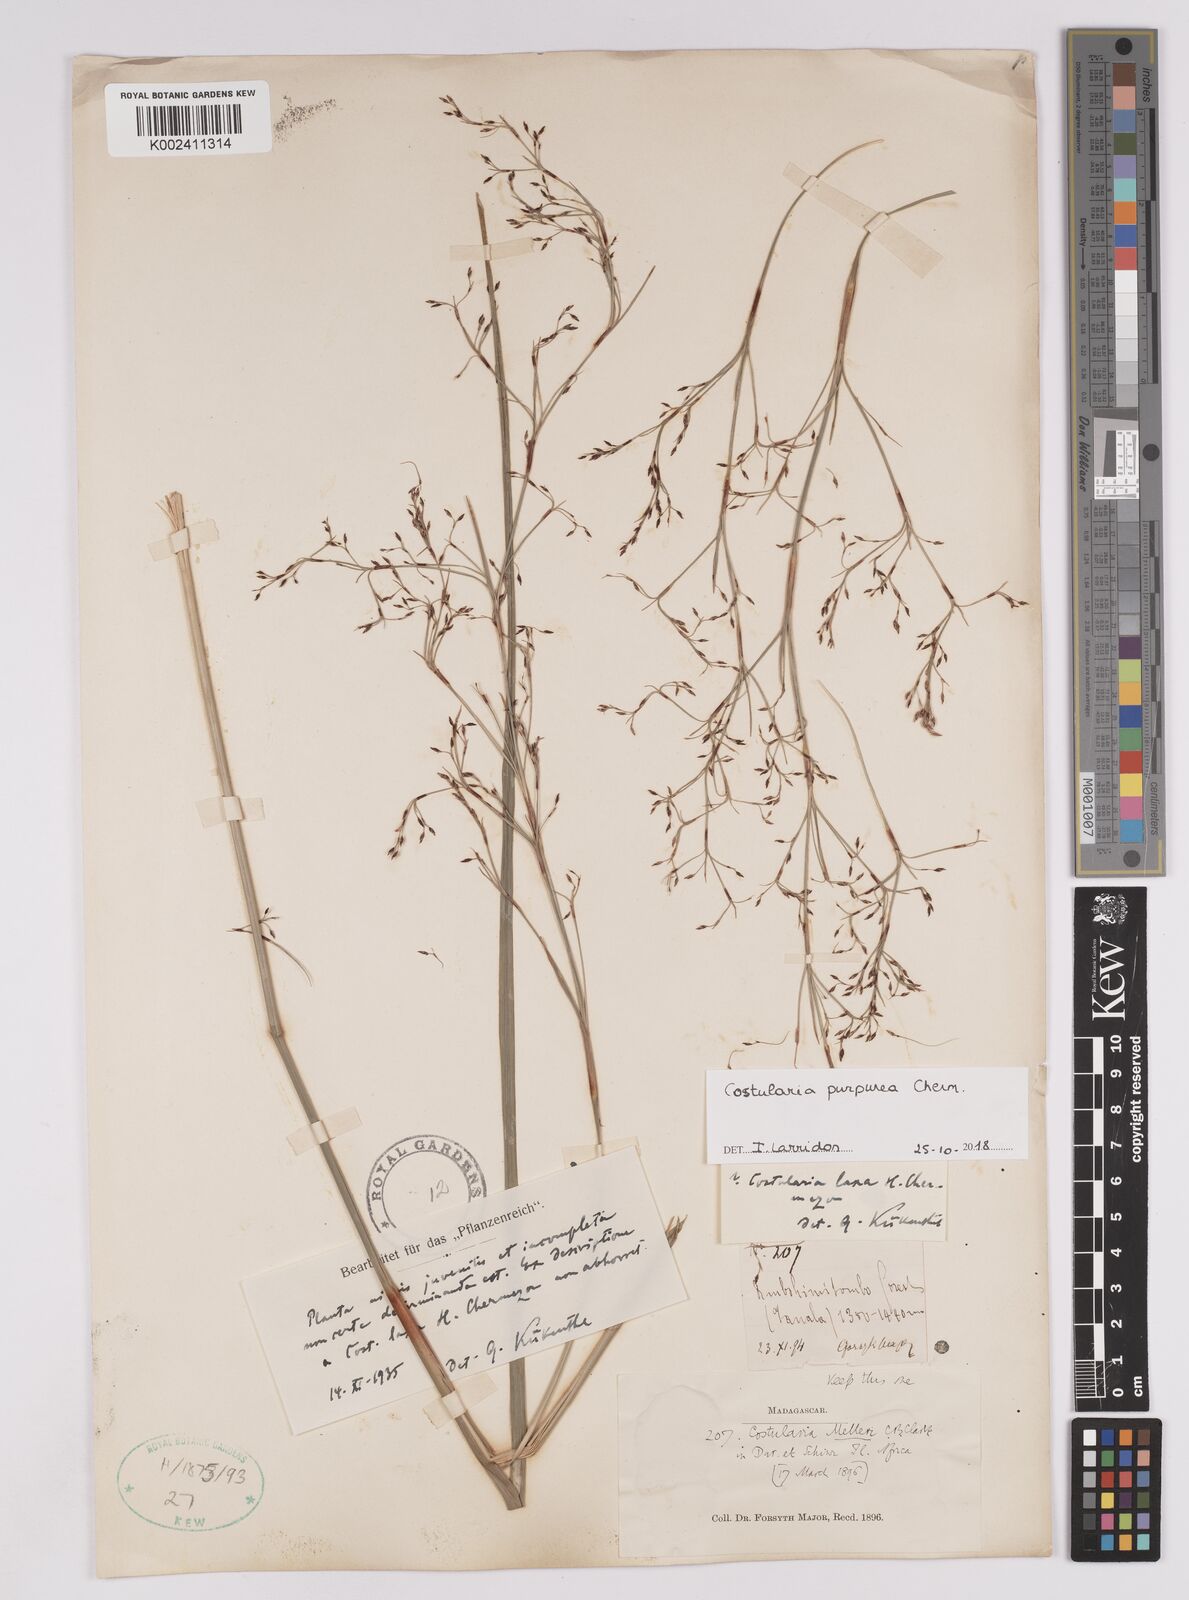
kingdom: Plantae
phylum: Tracheophyta
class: Liliopsida
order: Poales
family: Cyperaceae
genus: Costularia
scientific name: Costularia purpurea
